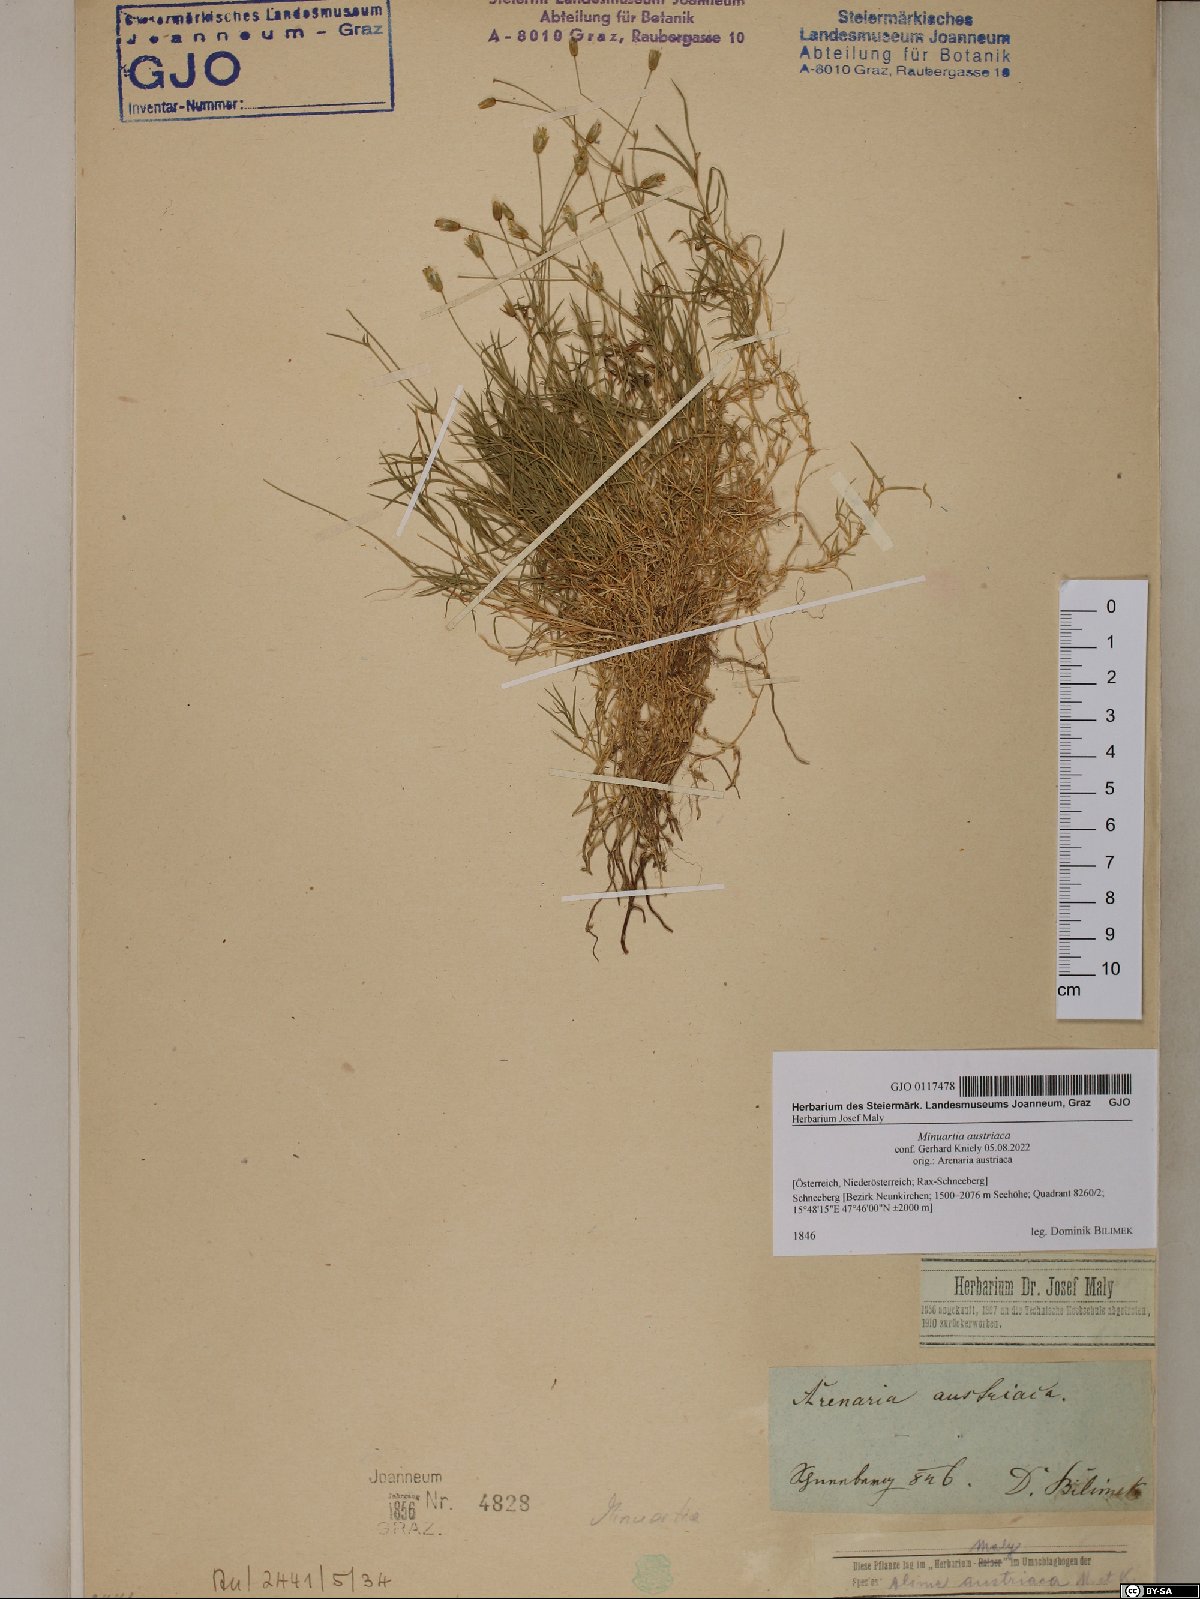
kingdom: Plantae
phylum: Tracheophyta
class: Magnoliopsida
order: Caryophyllales
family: Caryophyllaceae
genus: Sabulina
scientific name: Sabulina austriaca
